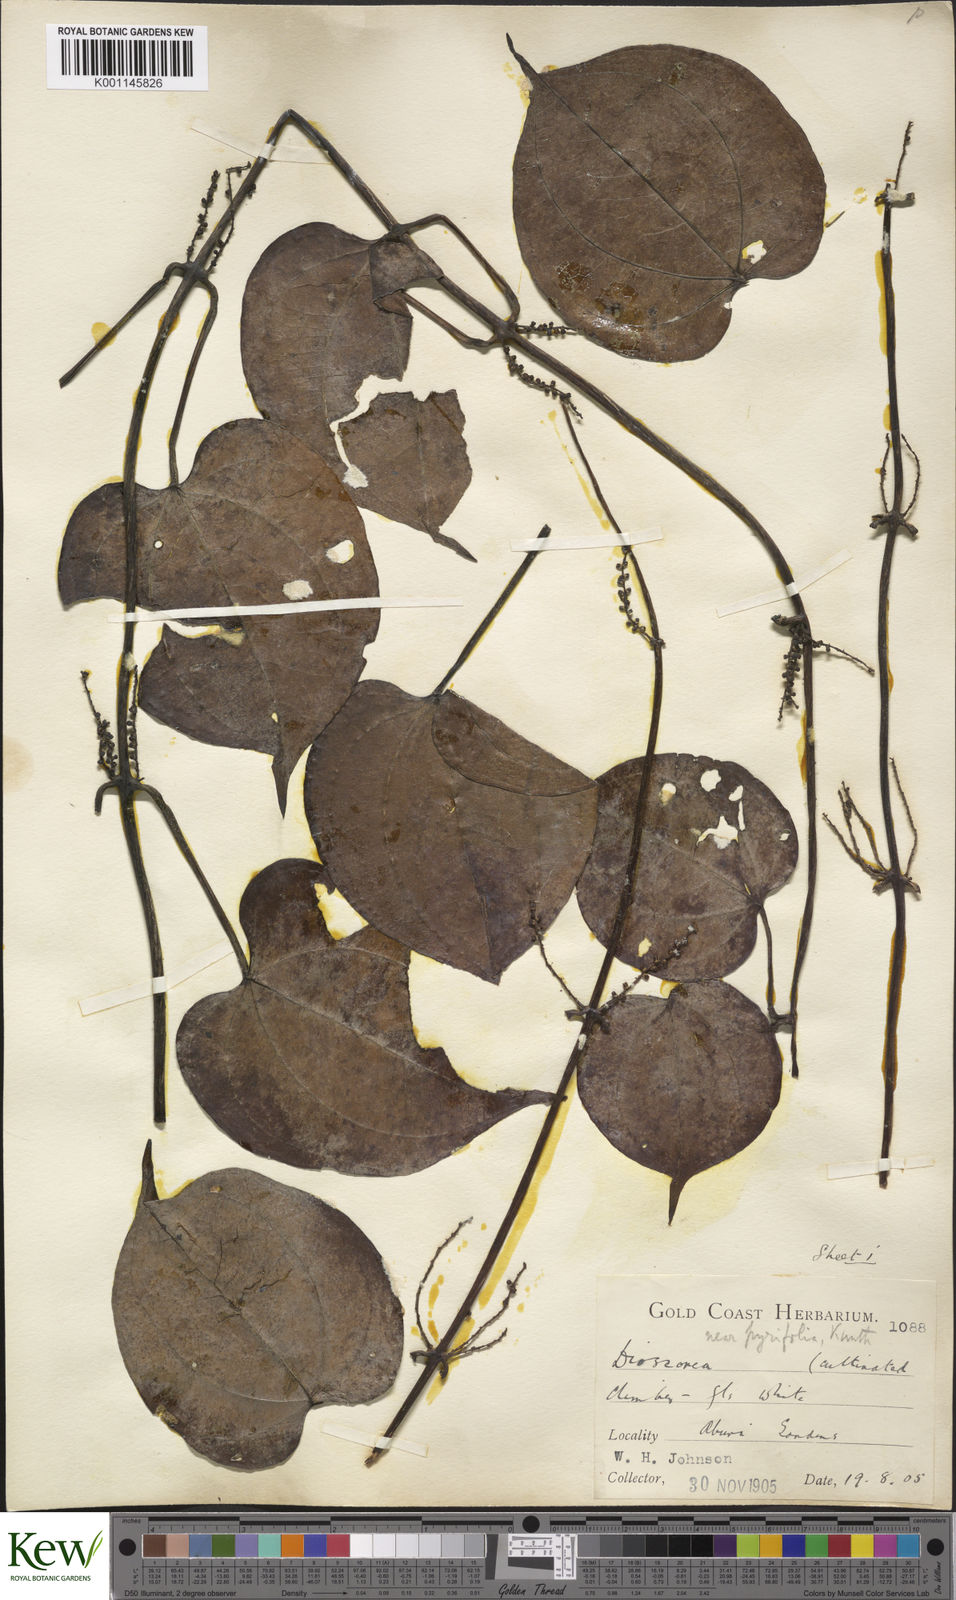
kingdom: Plantae
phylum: Tracheophyta
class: Liliopsida
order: Dioscoreales
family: Dioscoreaceae
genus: Dioscorea
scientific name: Dioscorea cayenensis
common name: Attoto yam
